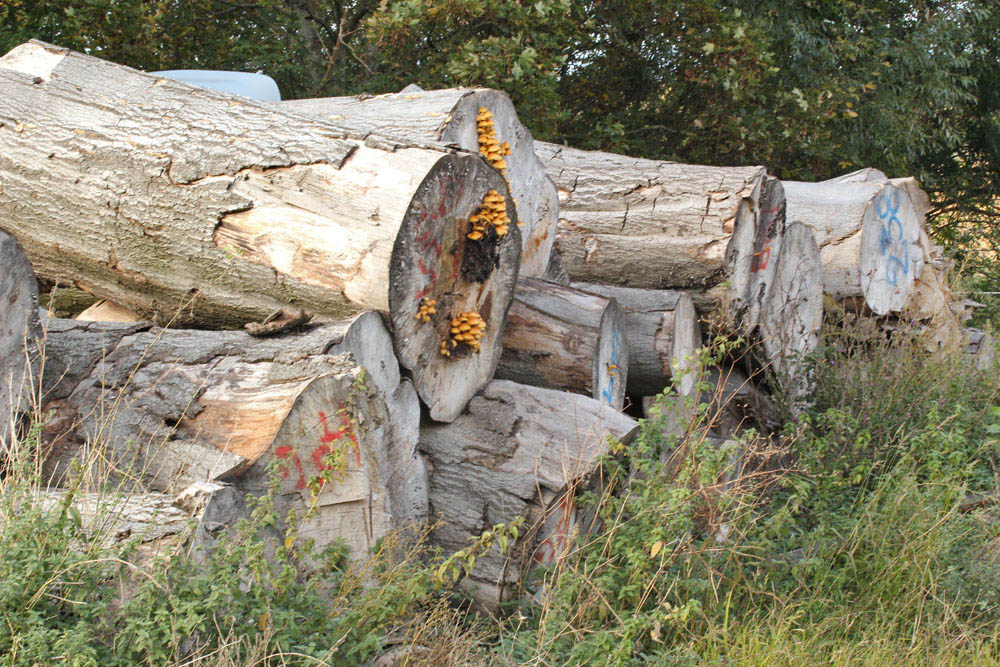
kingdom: Fungi
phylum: Basidiomycota
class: Agaricomycetes
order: Agaricales
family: Strophariaceae
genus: Pholiota
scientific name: Pholiota adiposa
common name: højtsiddende skælhat
